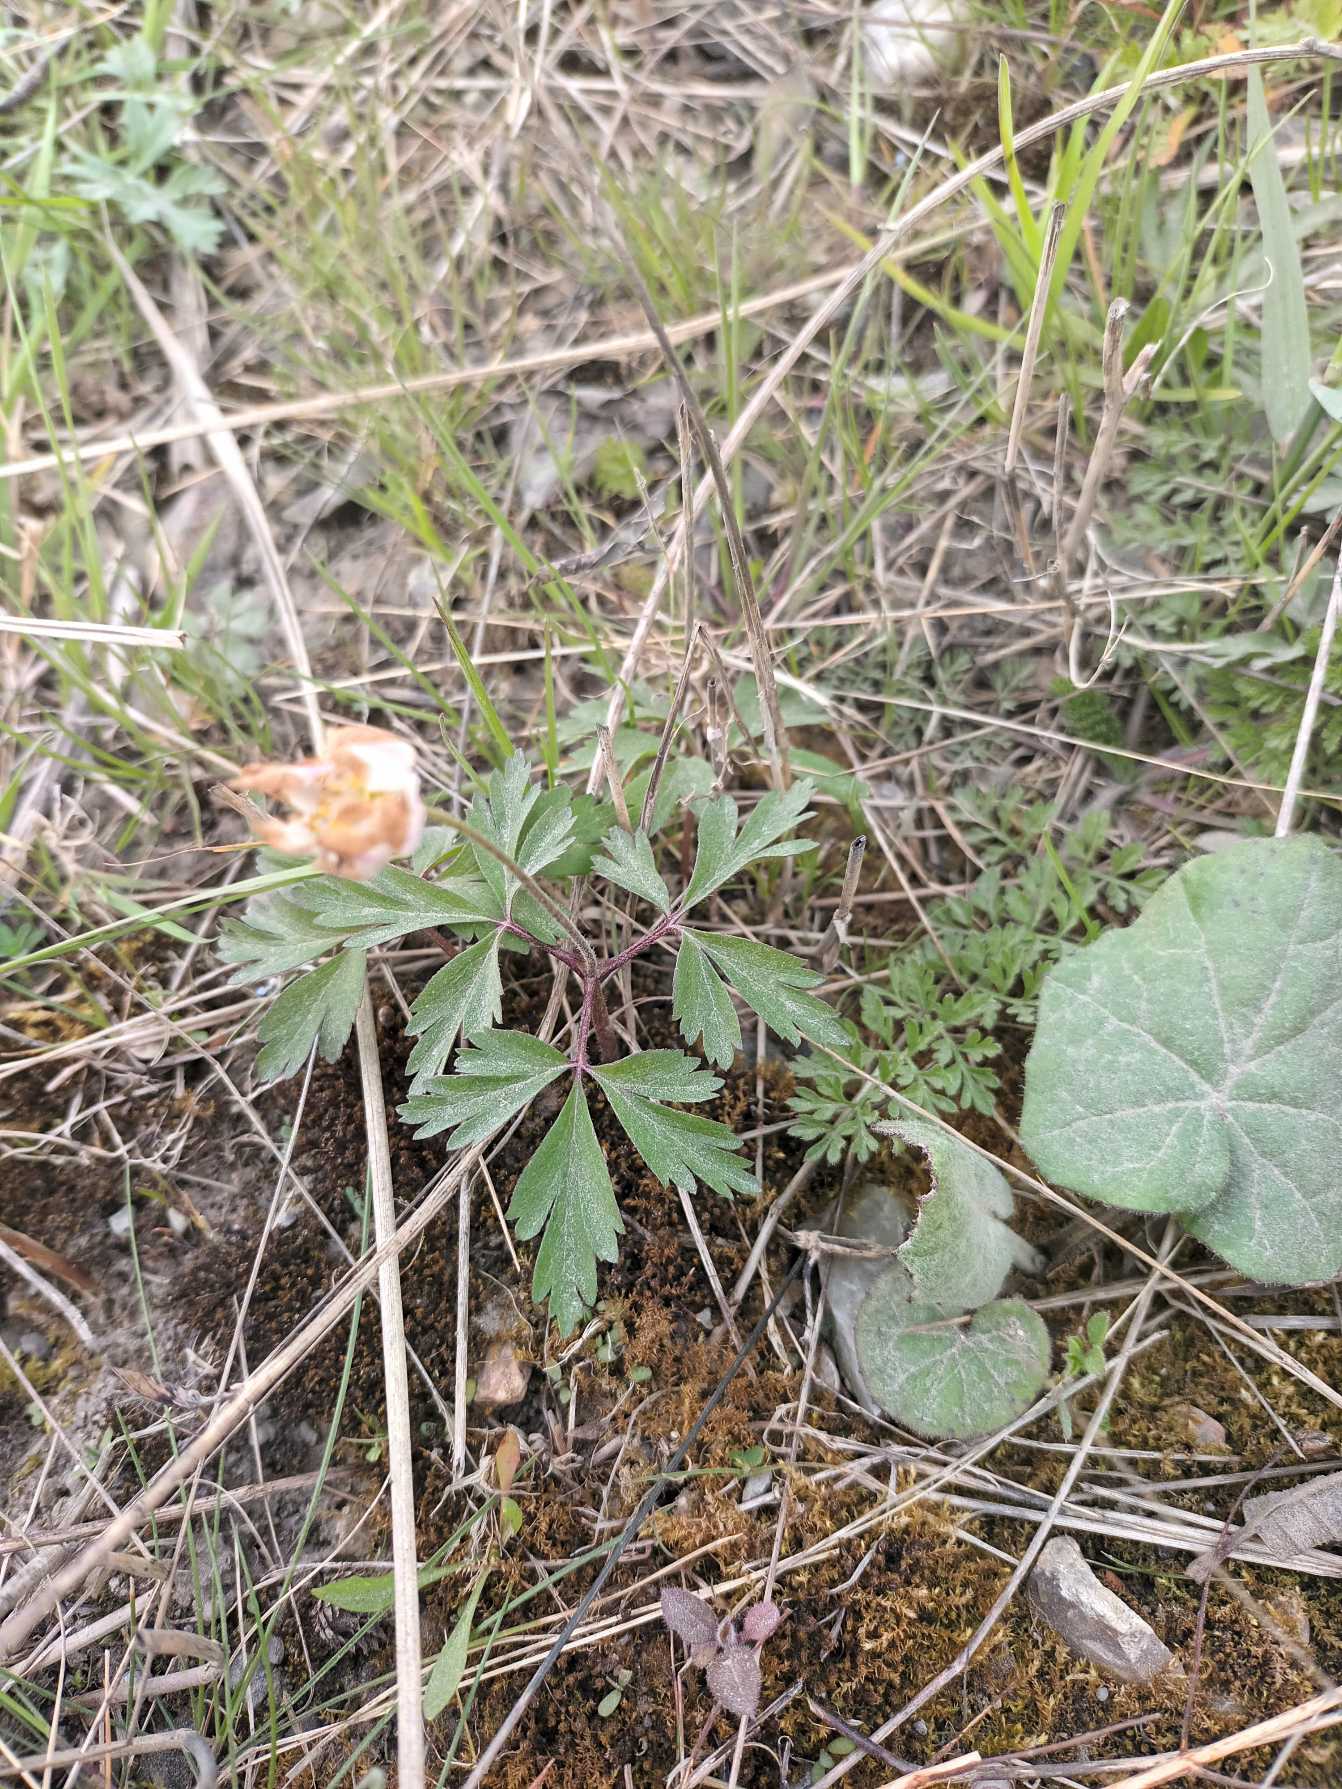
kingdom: Plantae
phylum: Tracheophyta
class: Magnoliopsida
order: Ranunculales
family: Ranunculaceae
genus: Anemone
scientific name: Anemone nemorosa
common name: Hvid anemone
